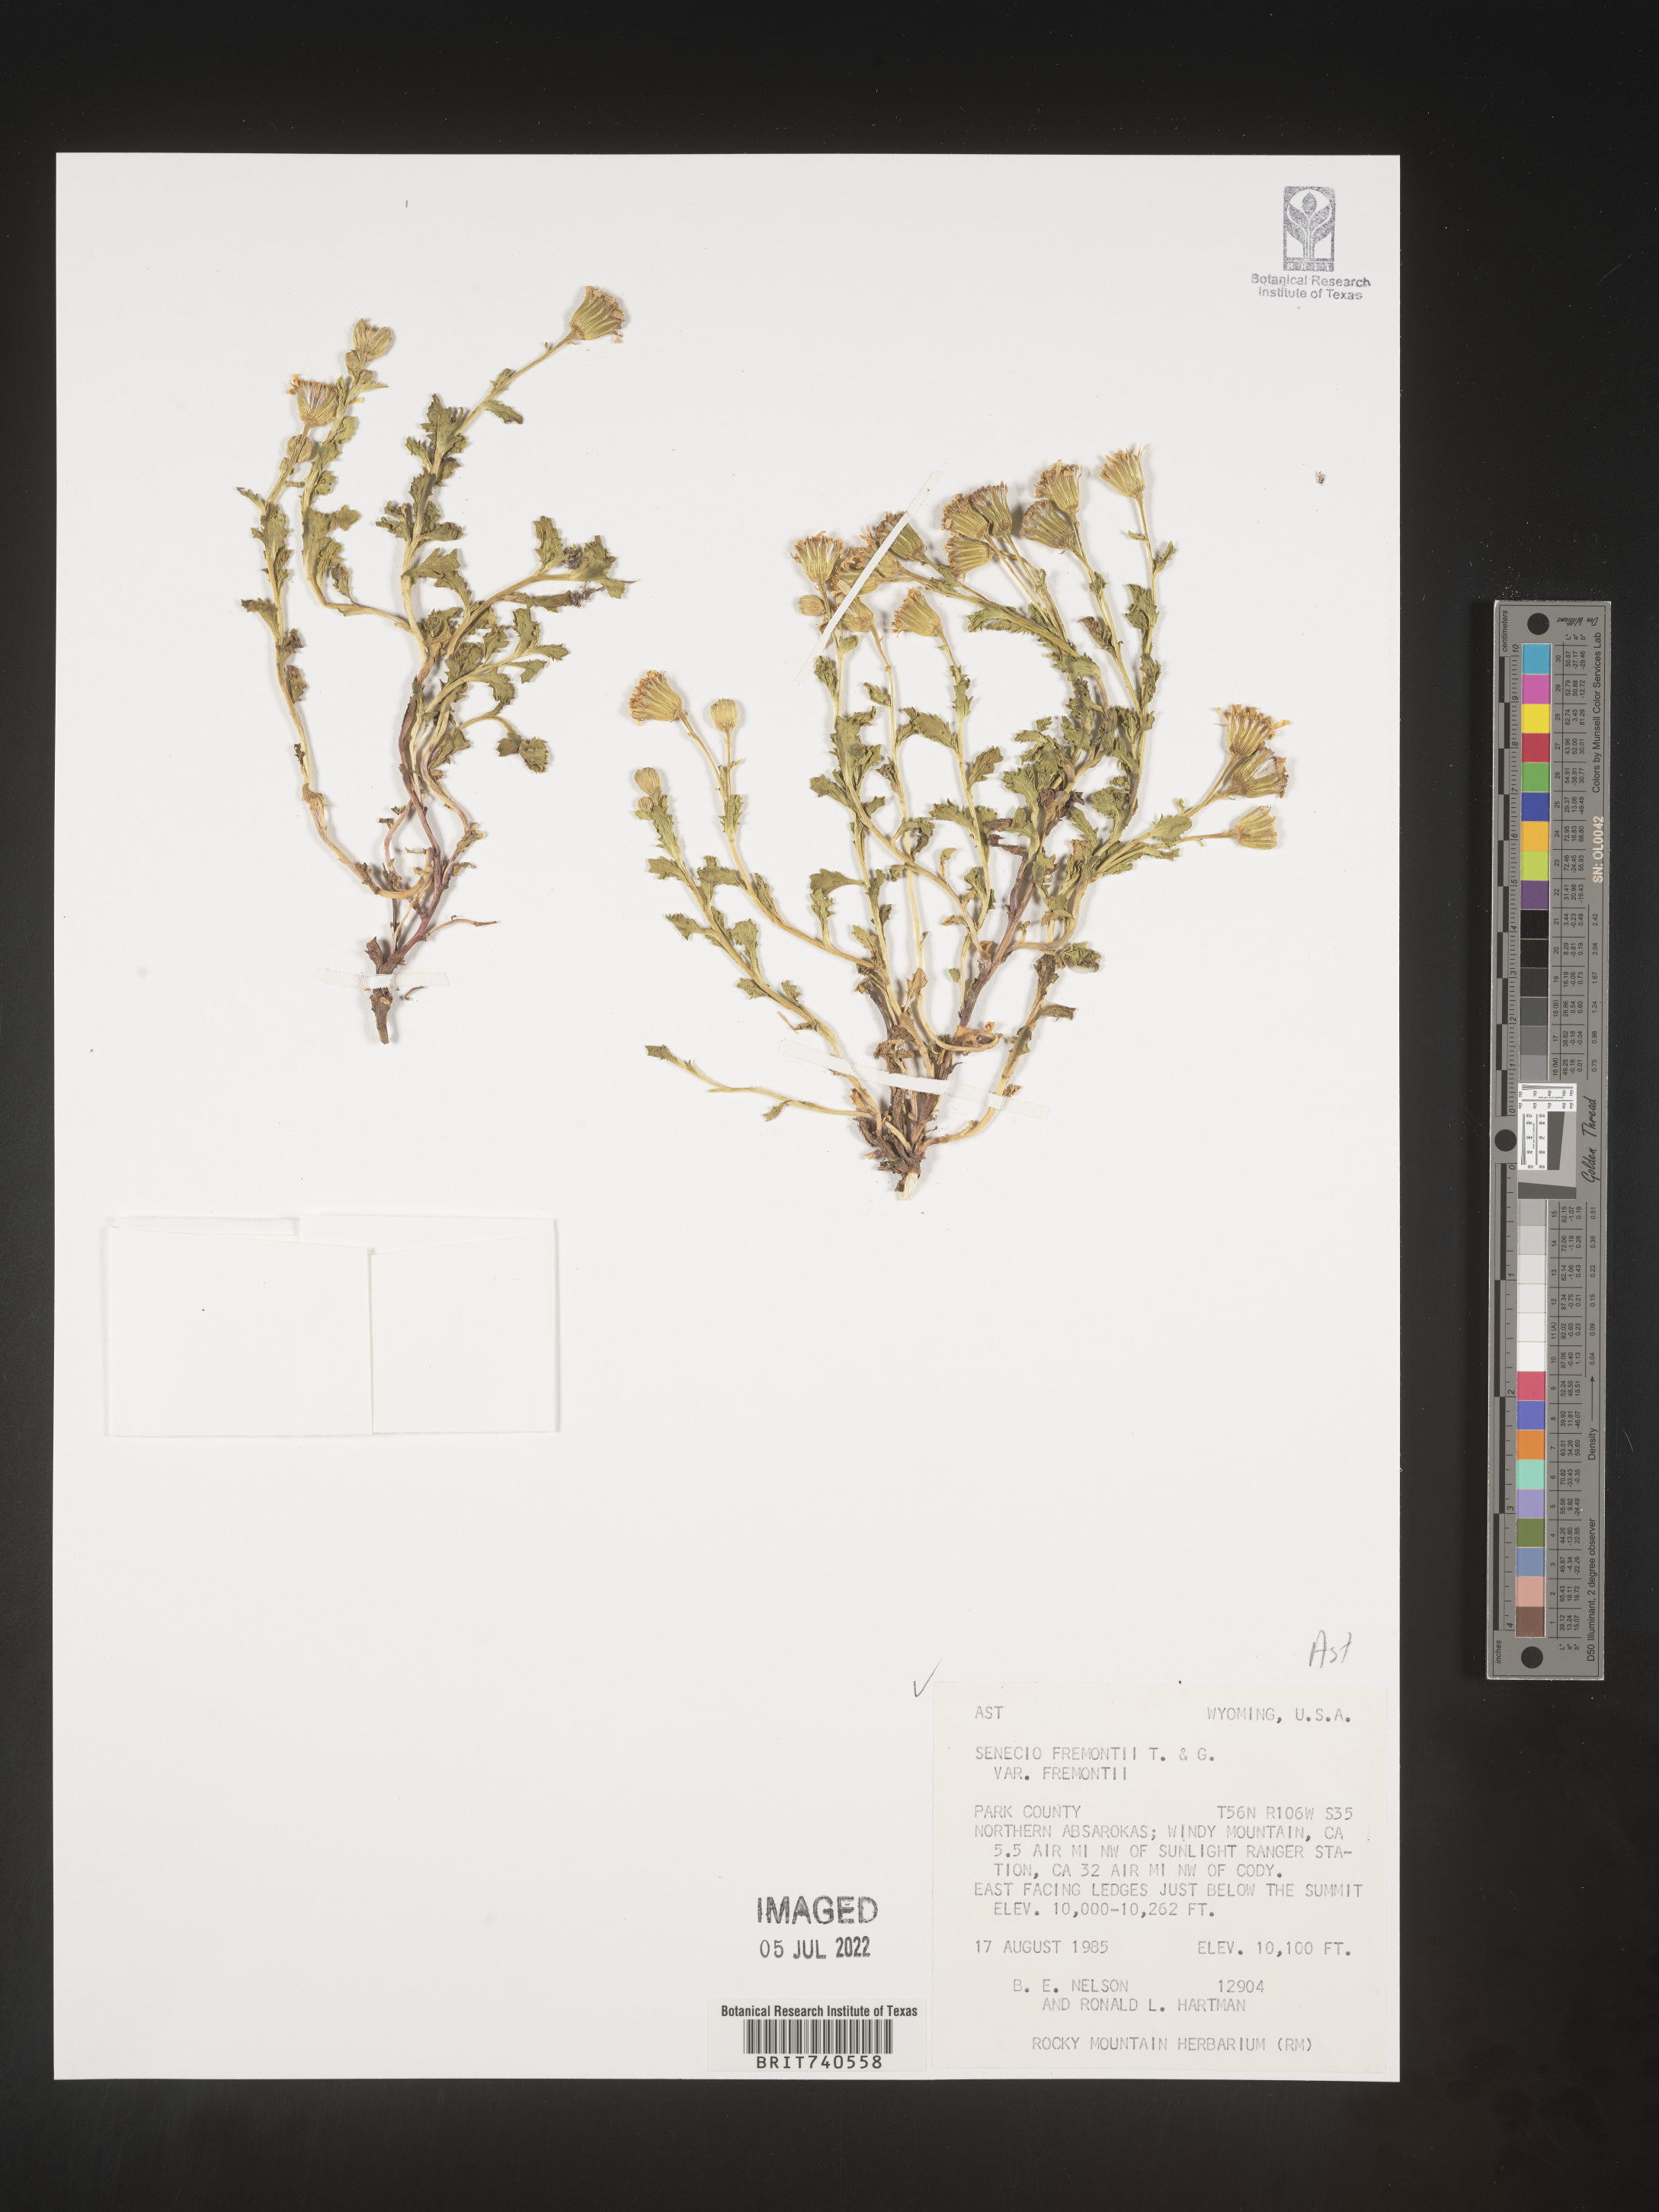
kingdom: Plantae
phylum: Tracheophyta
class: Magnoliopsida
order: Asterales
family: Asteraceae
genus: Senecio
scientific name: Senecio fremontii
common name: Fremont's groundsel
